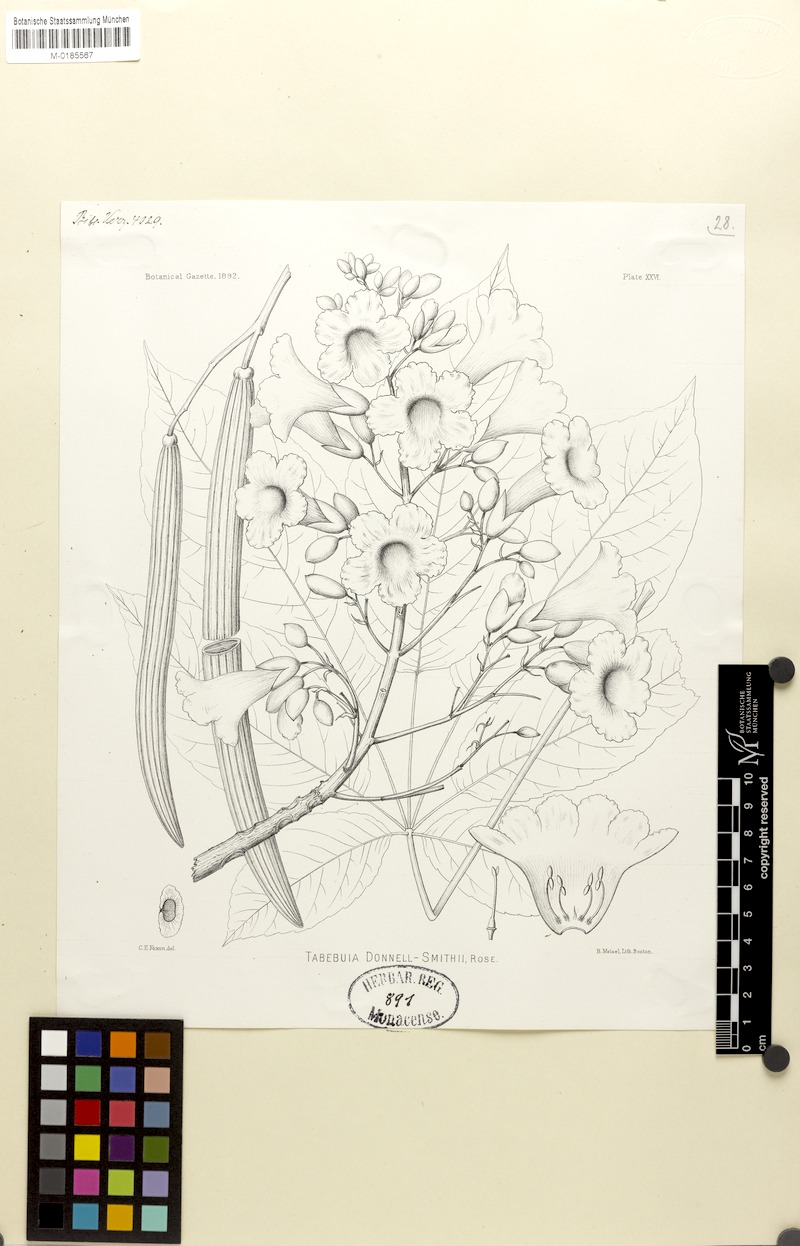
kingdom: Plantae
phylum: Tracheophyta
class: Magnoliopsida
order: Lamiales
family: Bignoniaceae
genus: Roseodendron
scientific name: Roseodendron donnell-smithii
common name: White-mahogany
